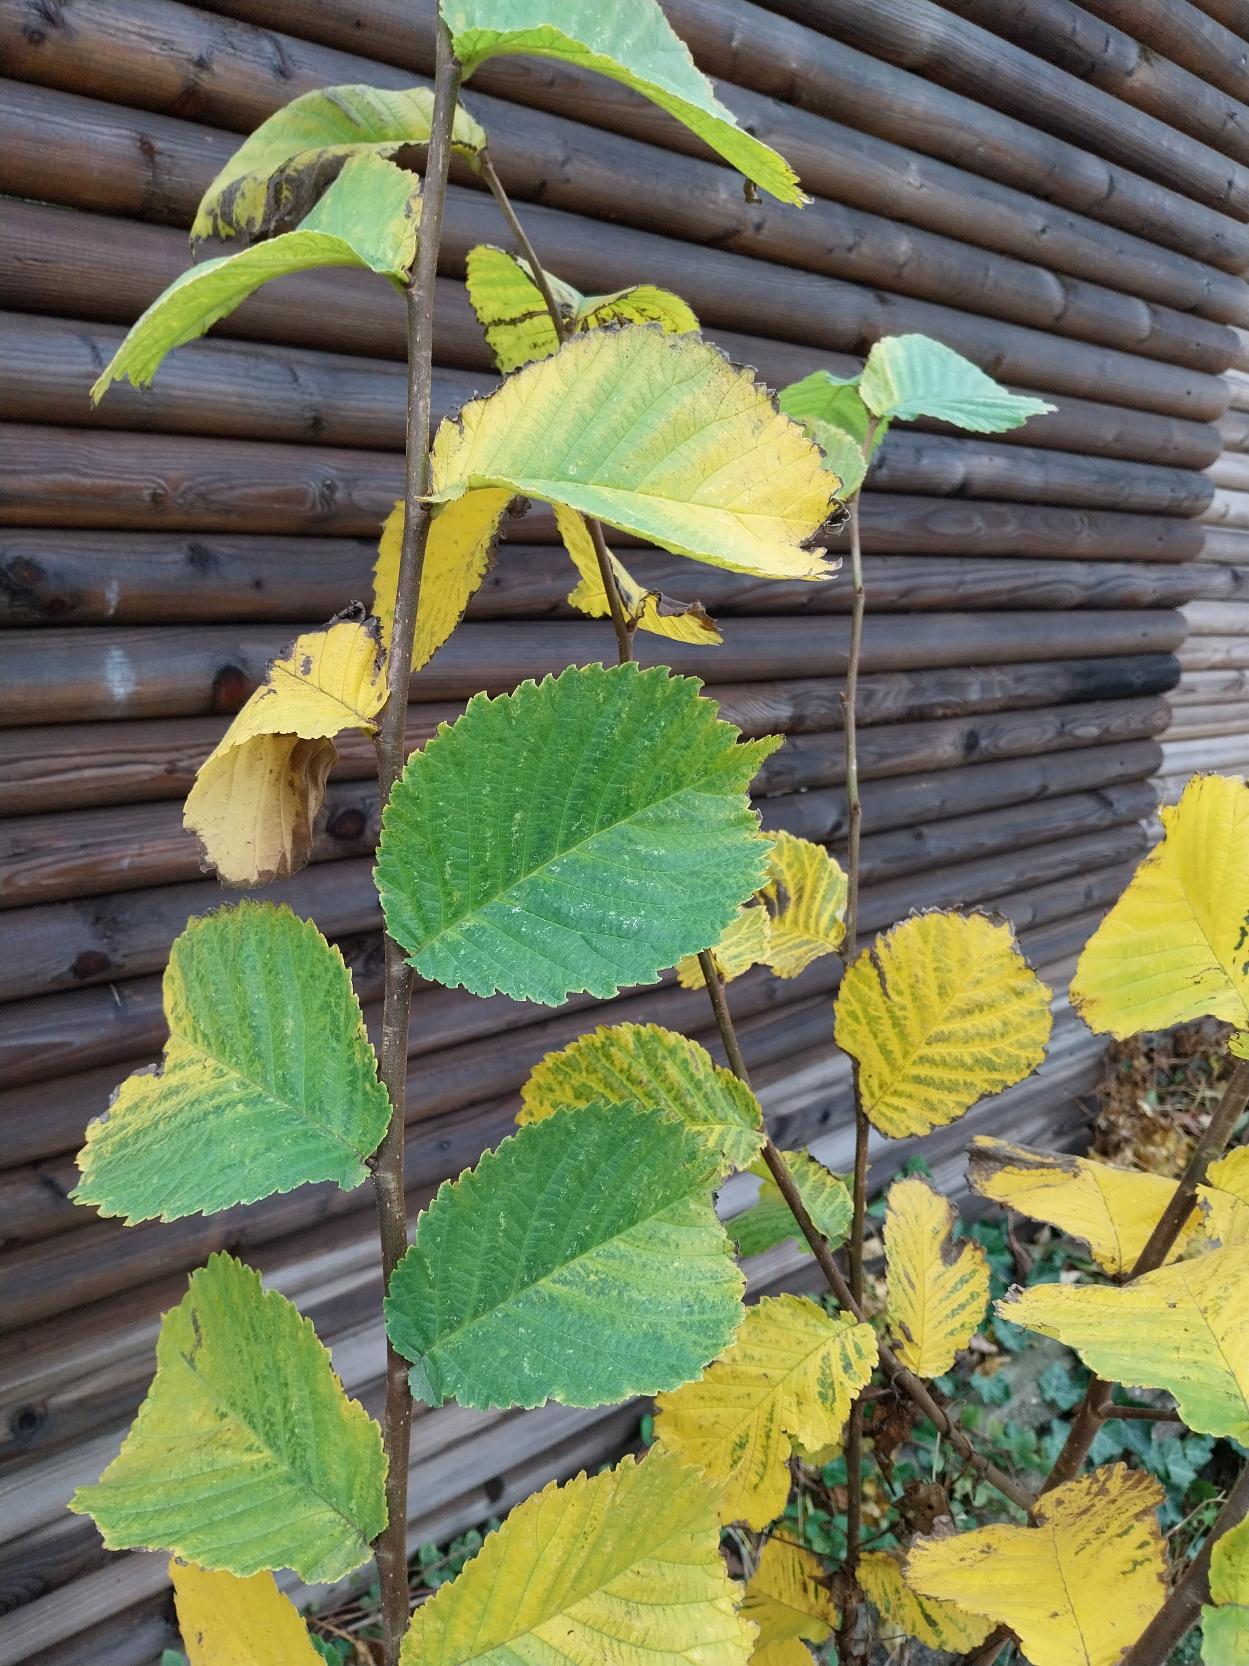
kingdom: Plantae
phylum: Tracheophyta
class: Magnoliopsida
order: Rosales
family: Ulmaceae
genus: Ulmus
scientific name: Ulmus glabra
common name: Skov-elm/storbladet elm
